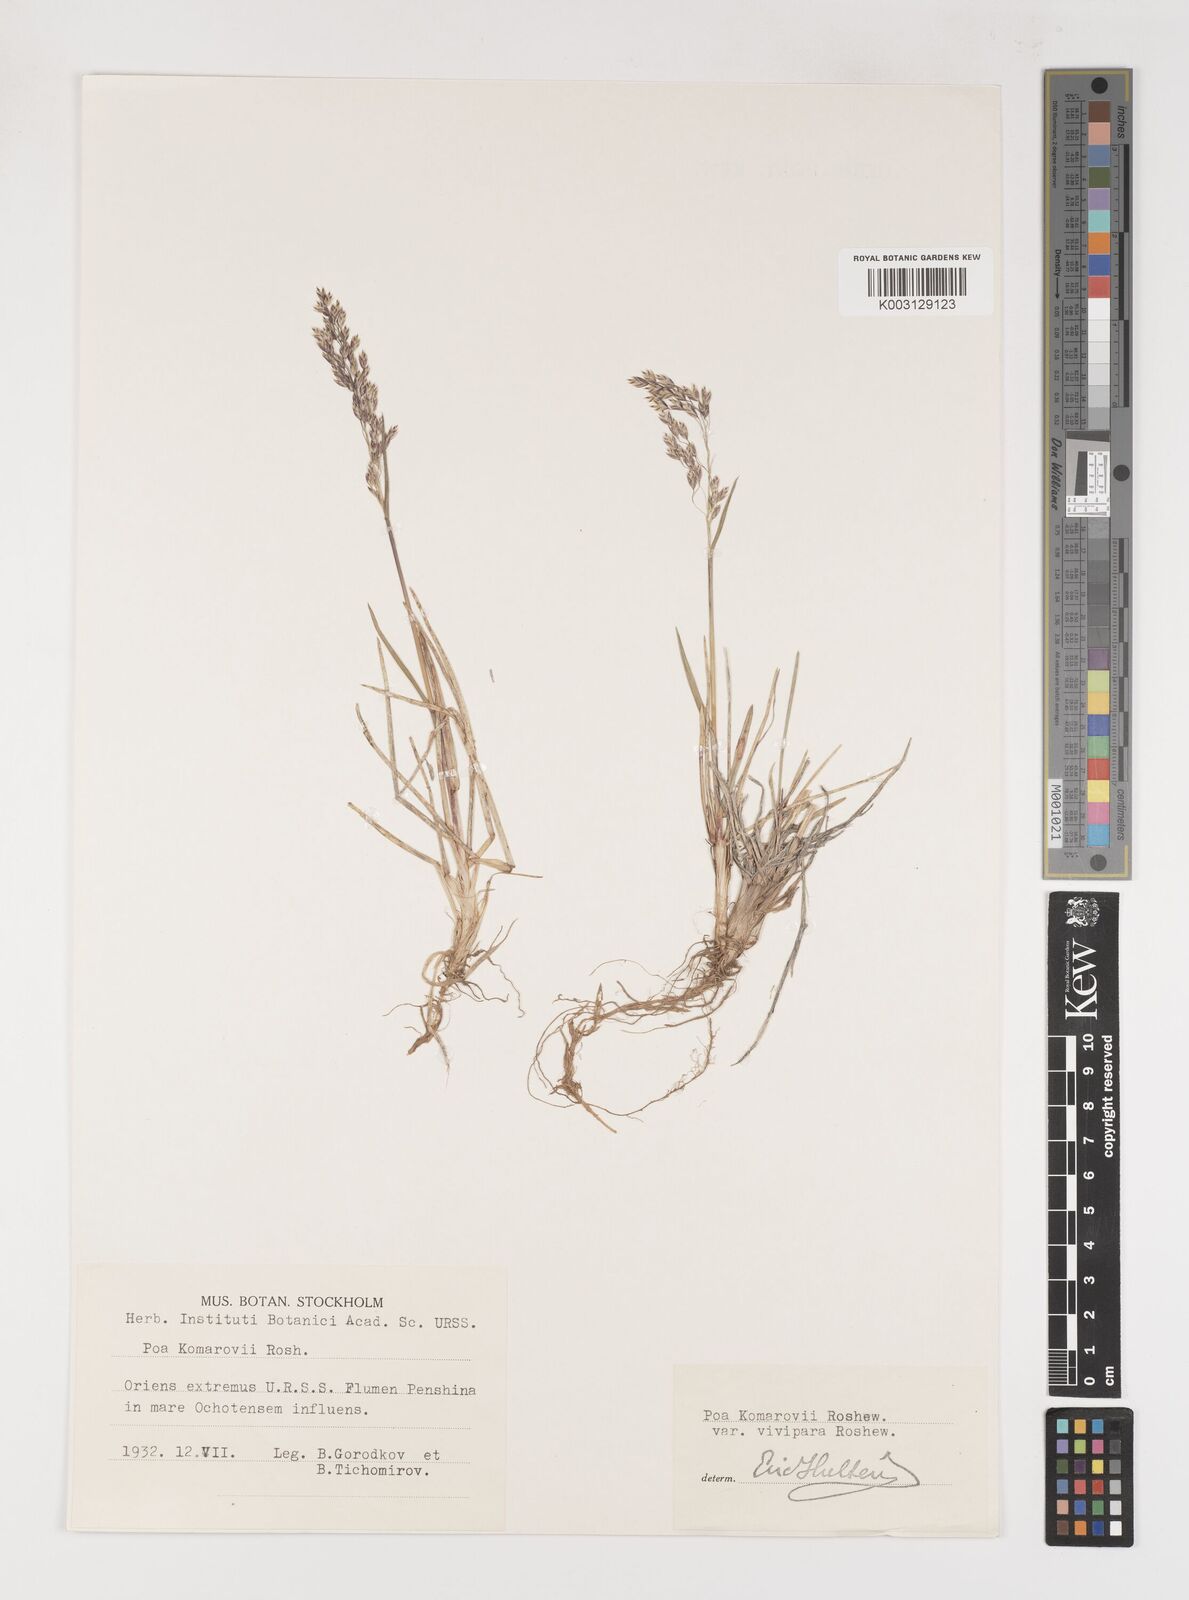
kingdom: Plantae
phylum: Tracheophyta
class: Liliopsida
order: Poales
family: Poaceae
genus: Poa
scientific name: Poa arctica
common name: Arctic bluegrass
